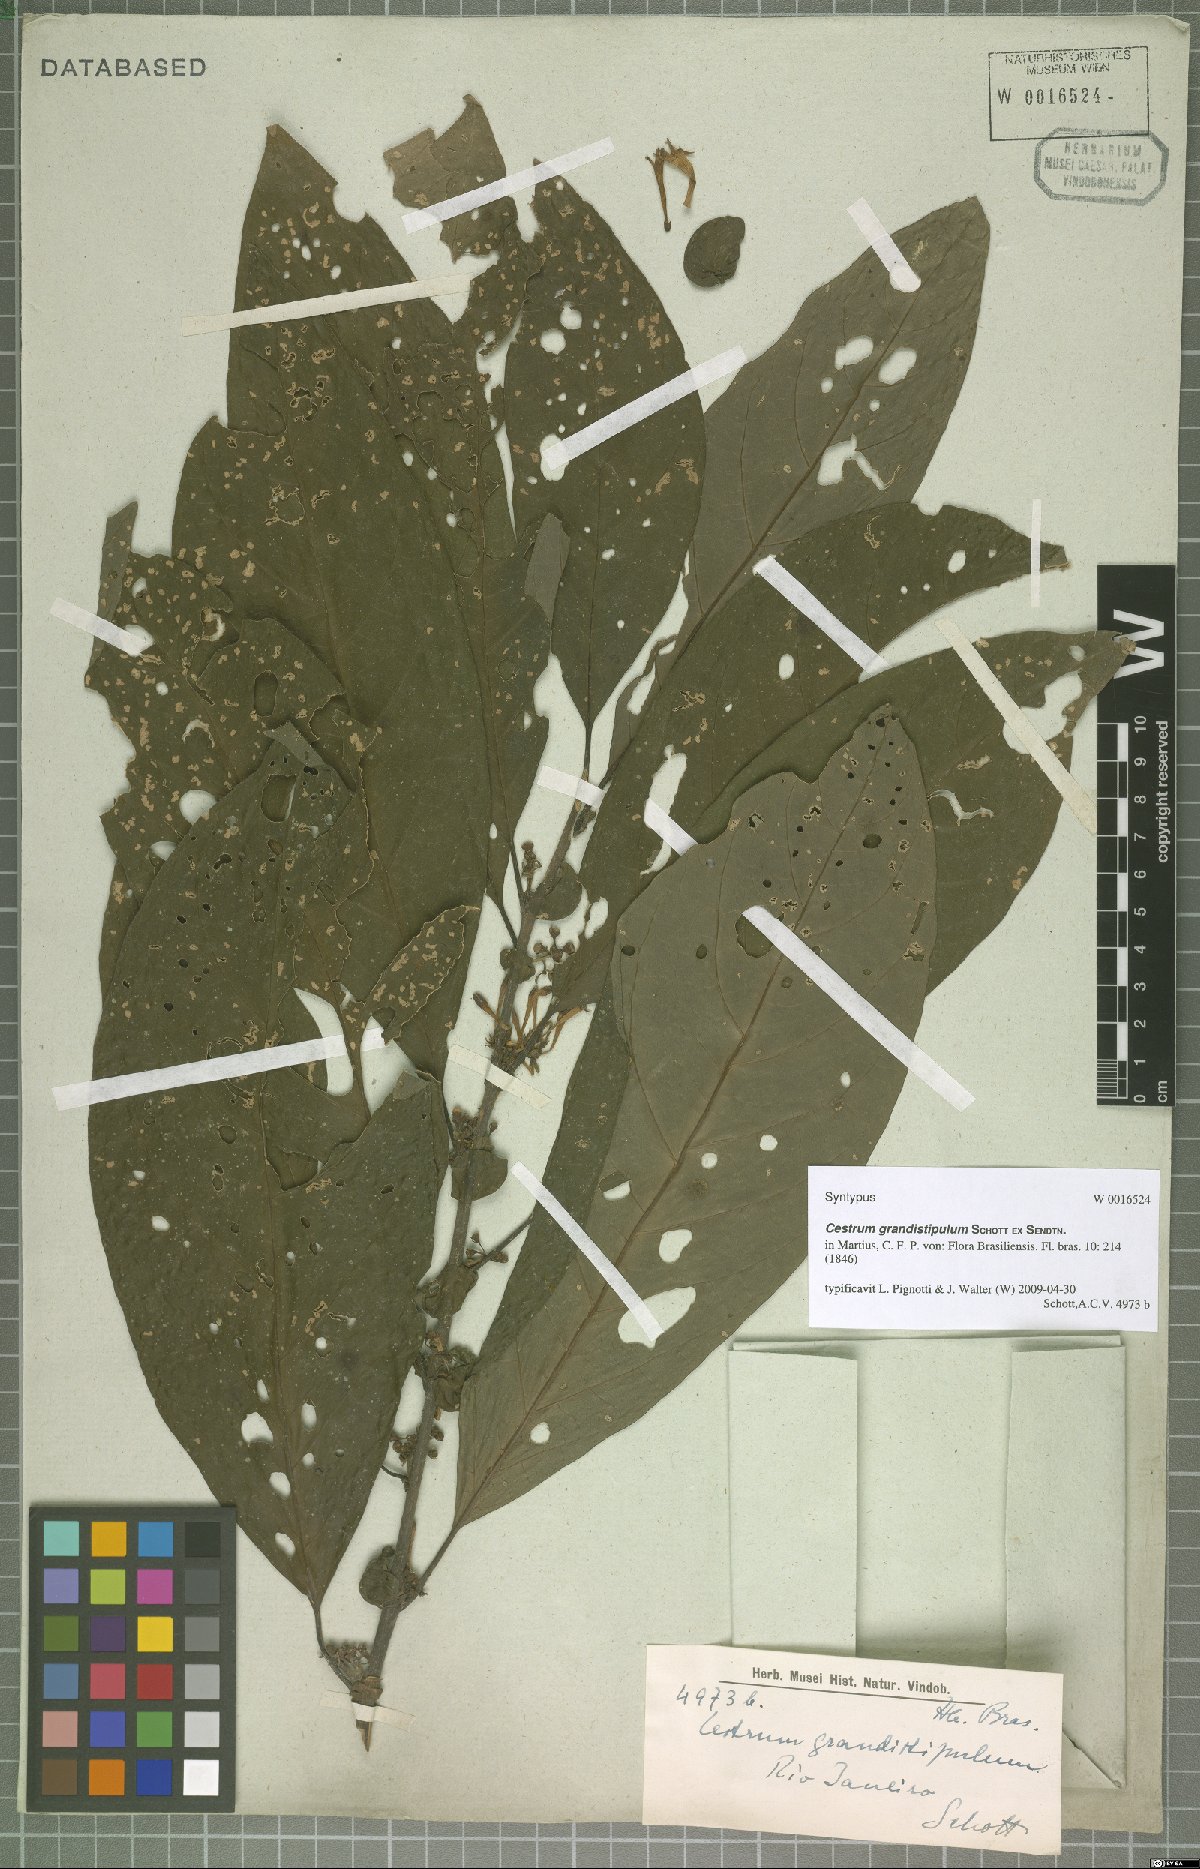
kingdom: Plantae
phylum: Tracheophyta
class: Magnoliopsida
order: Solanales
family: Solanaceae
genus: Cestrum
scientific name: Cestrum corcovadense
